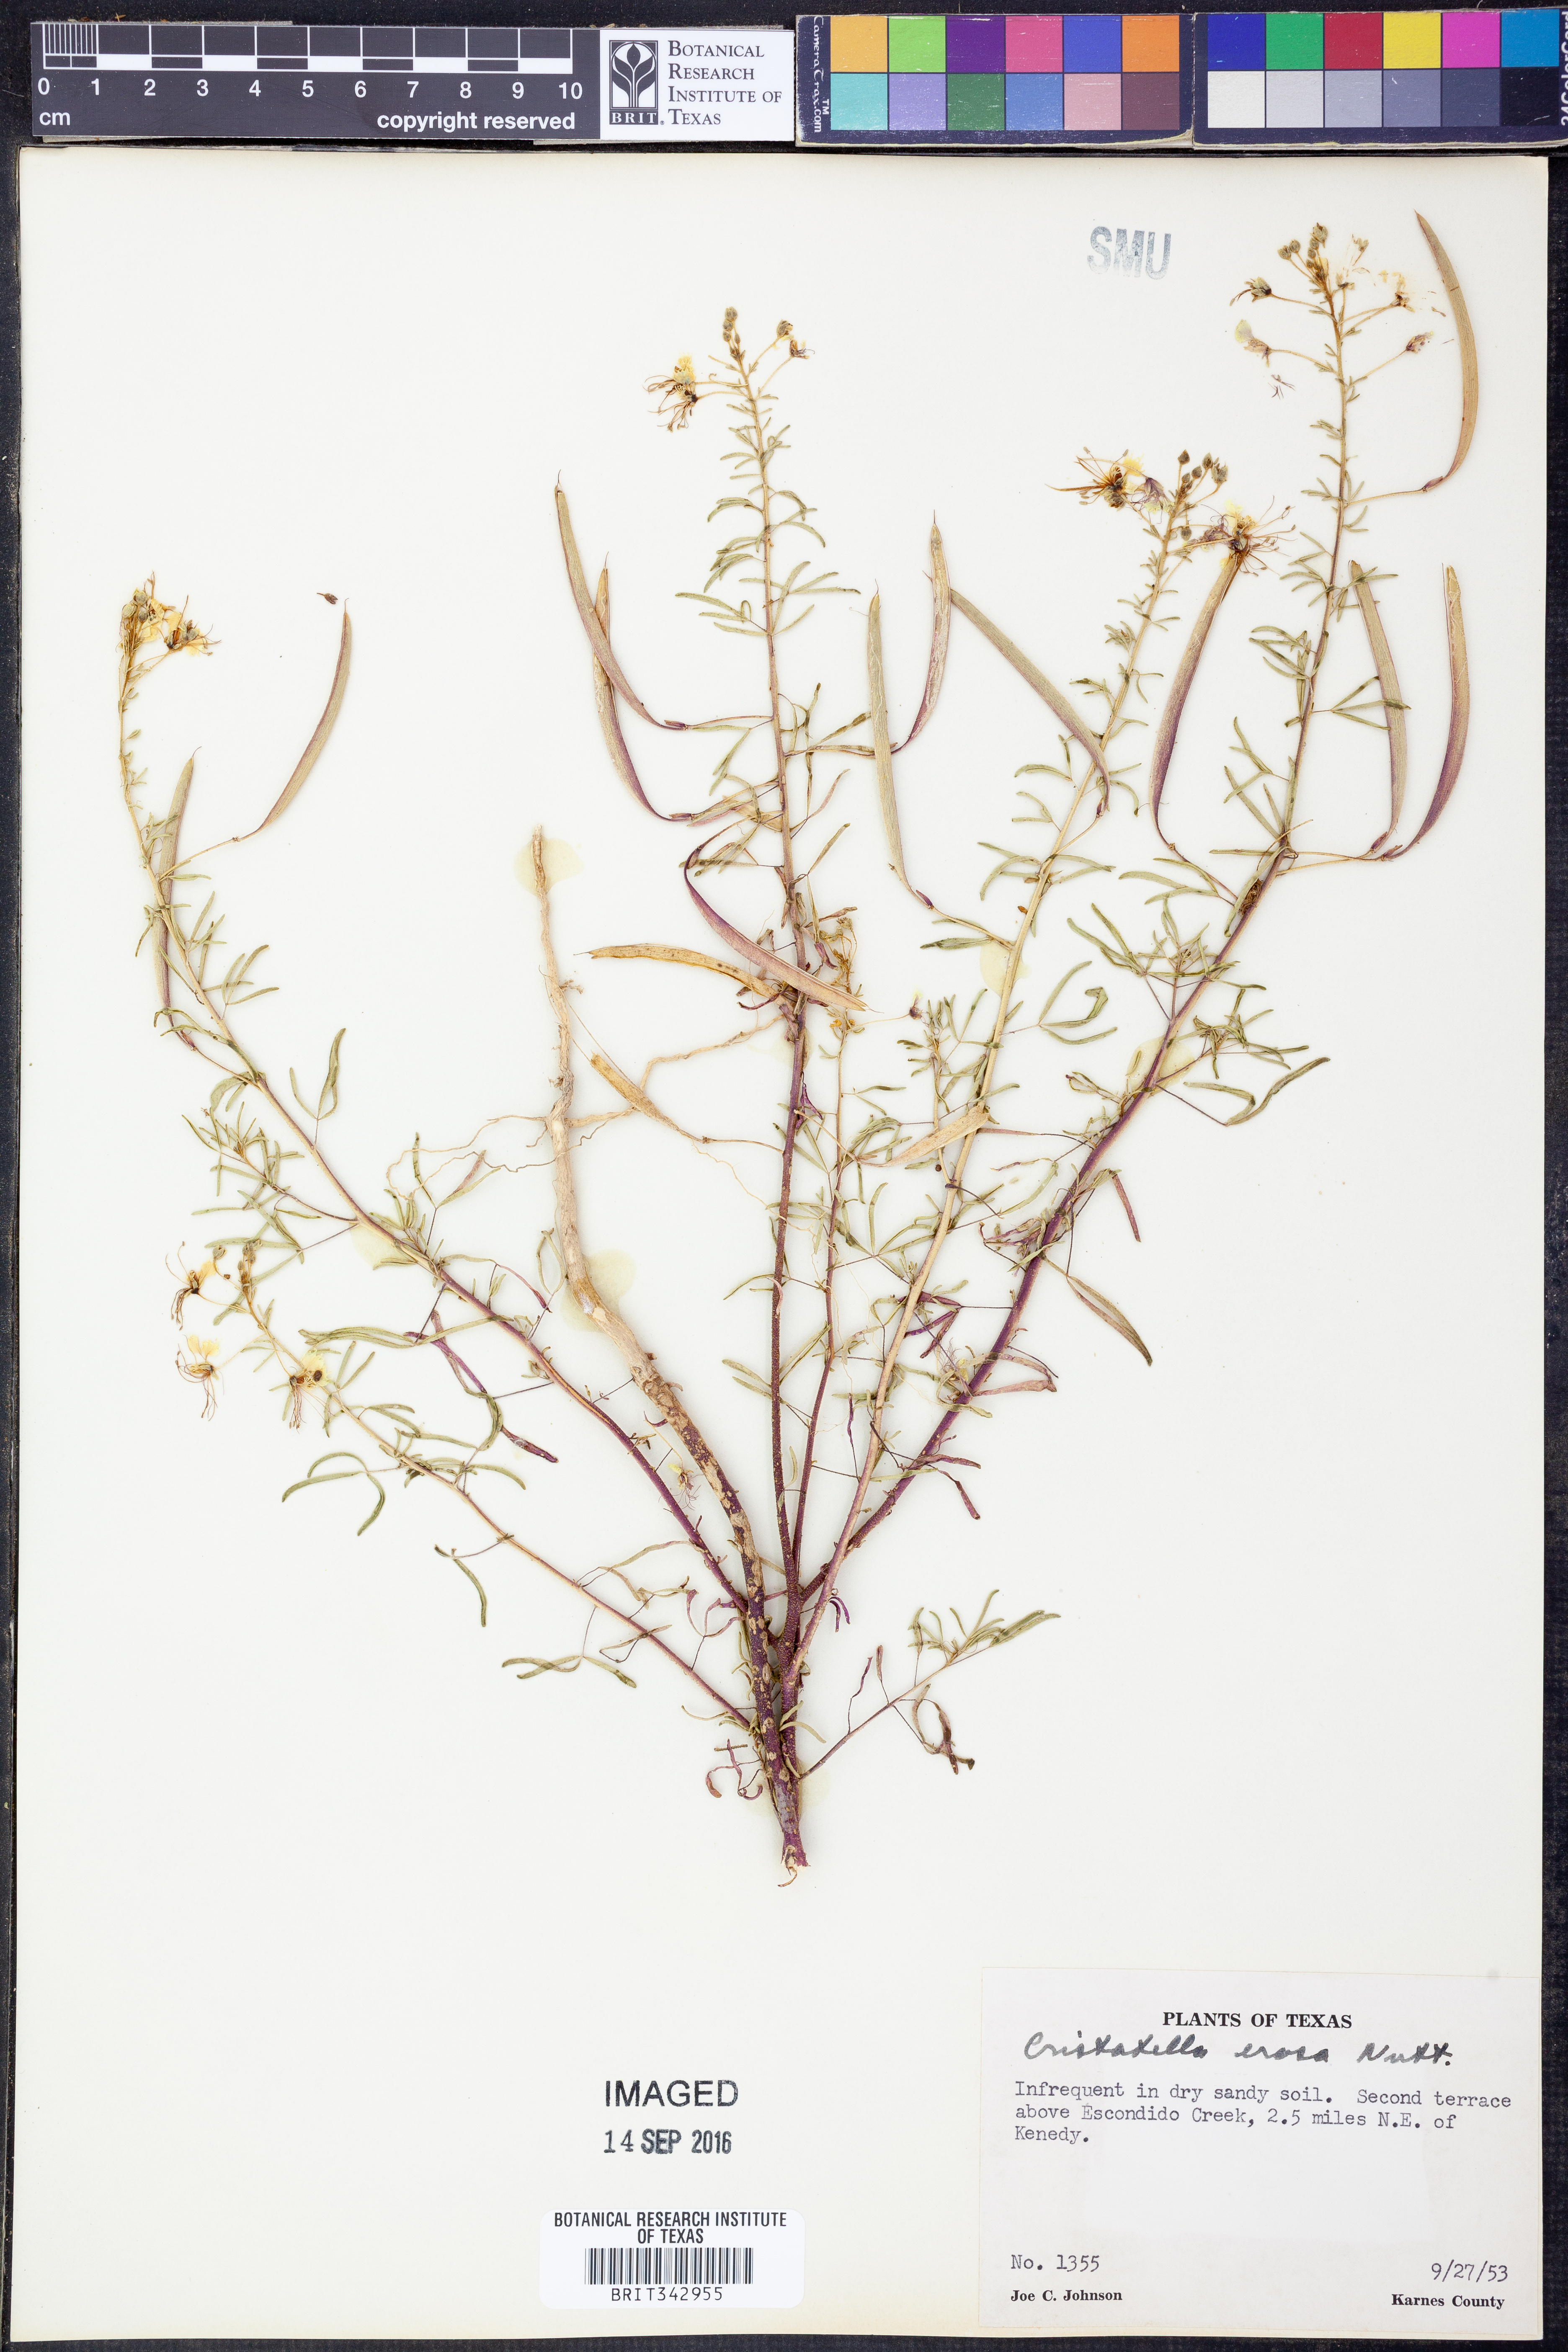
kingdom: Plantae
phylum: Tracheophyta
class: Magnoliopsida
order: Brassicales
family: Cleomaceae
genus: Polanisia
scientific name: Polanisia erosa
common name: Large clammyweed
